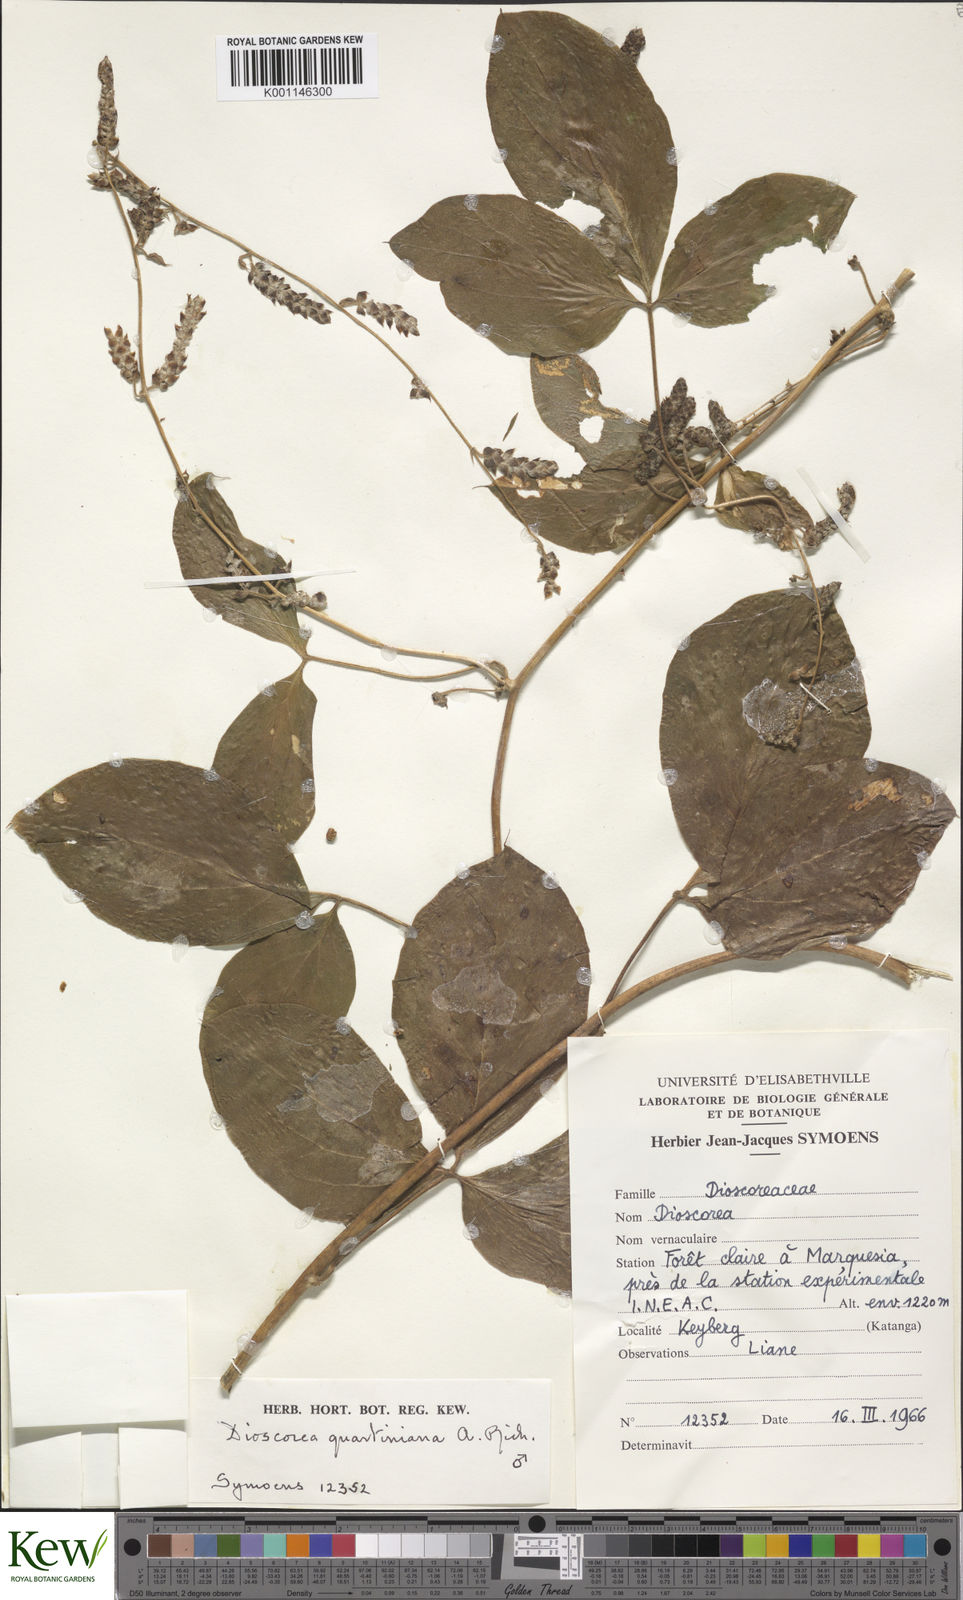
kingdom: Plantae
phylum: Tracheophyta
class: Liliopsida
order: Dioscoreales
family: Dioscoreaceae
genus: Dioscorea
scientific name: Dioscorea quartiniana
